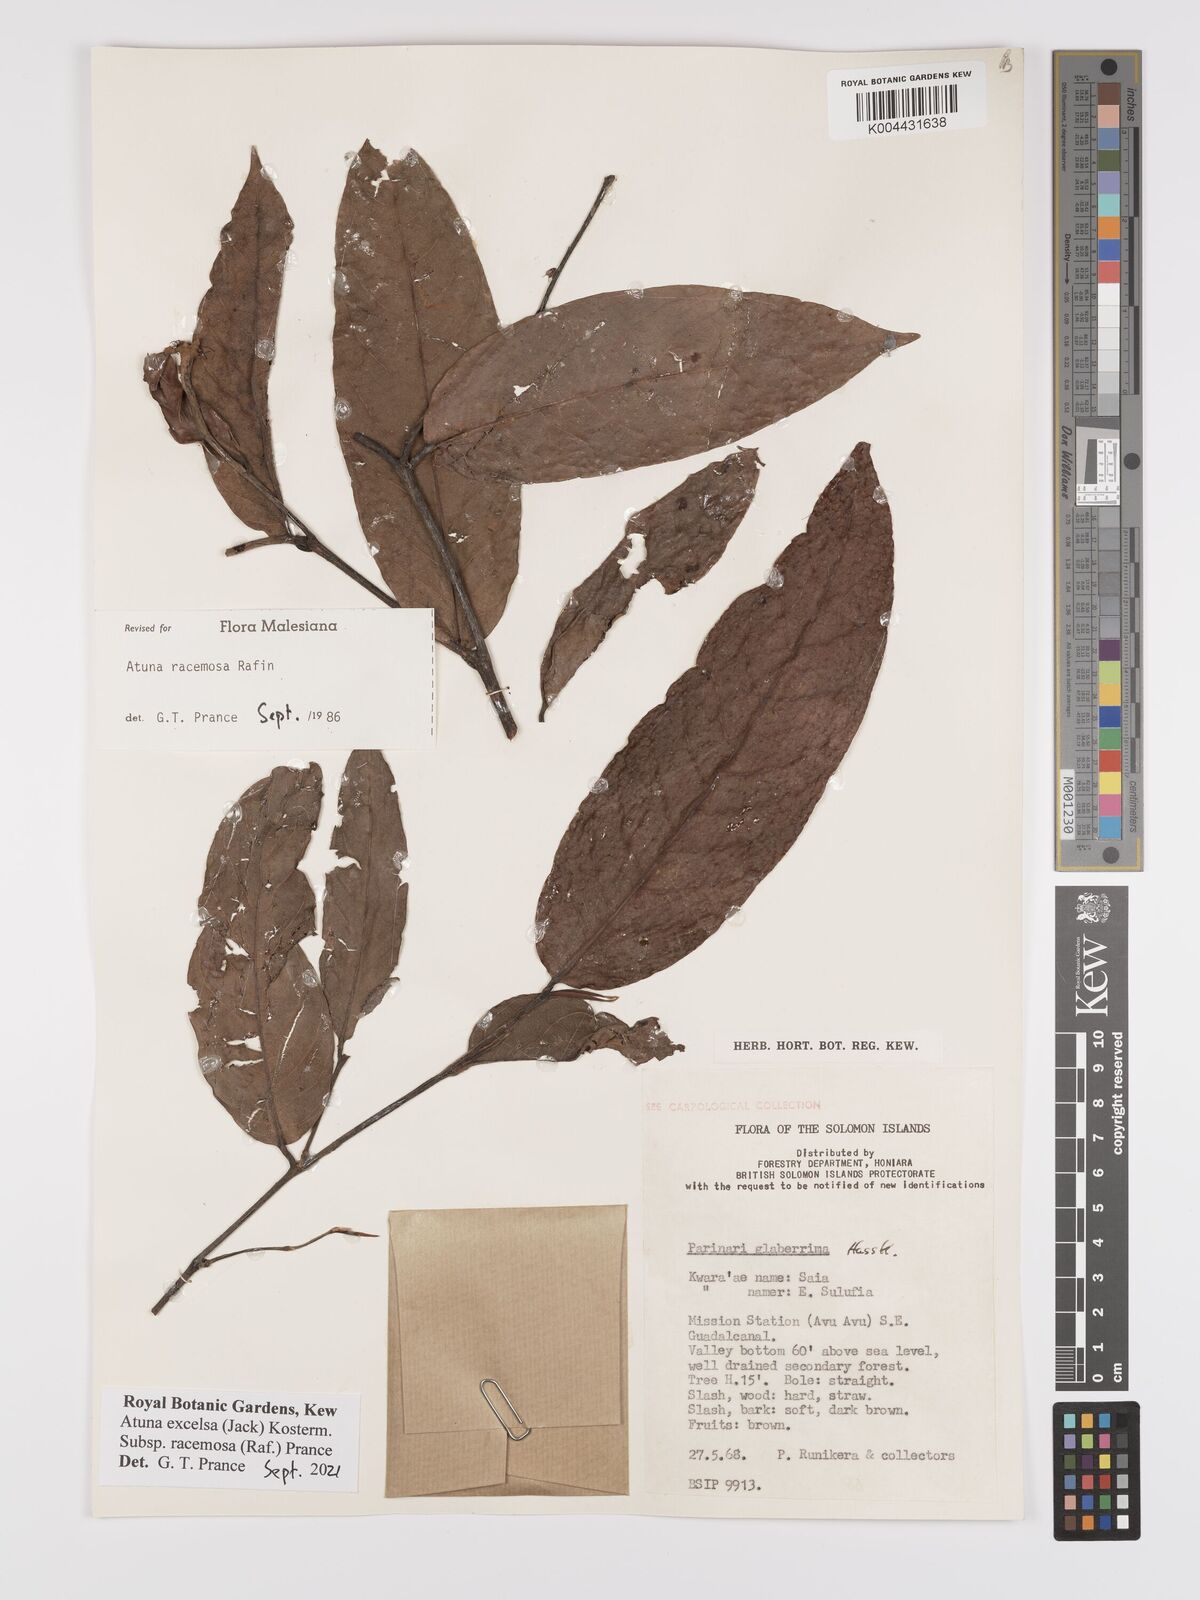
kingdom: Plantae
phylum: Tracheophyta
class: Magnoliopsida
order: Malpighiales
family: Chrysobalanaceae
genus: Atuna
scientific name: Atuna
